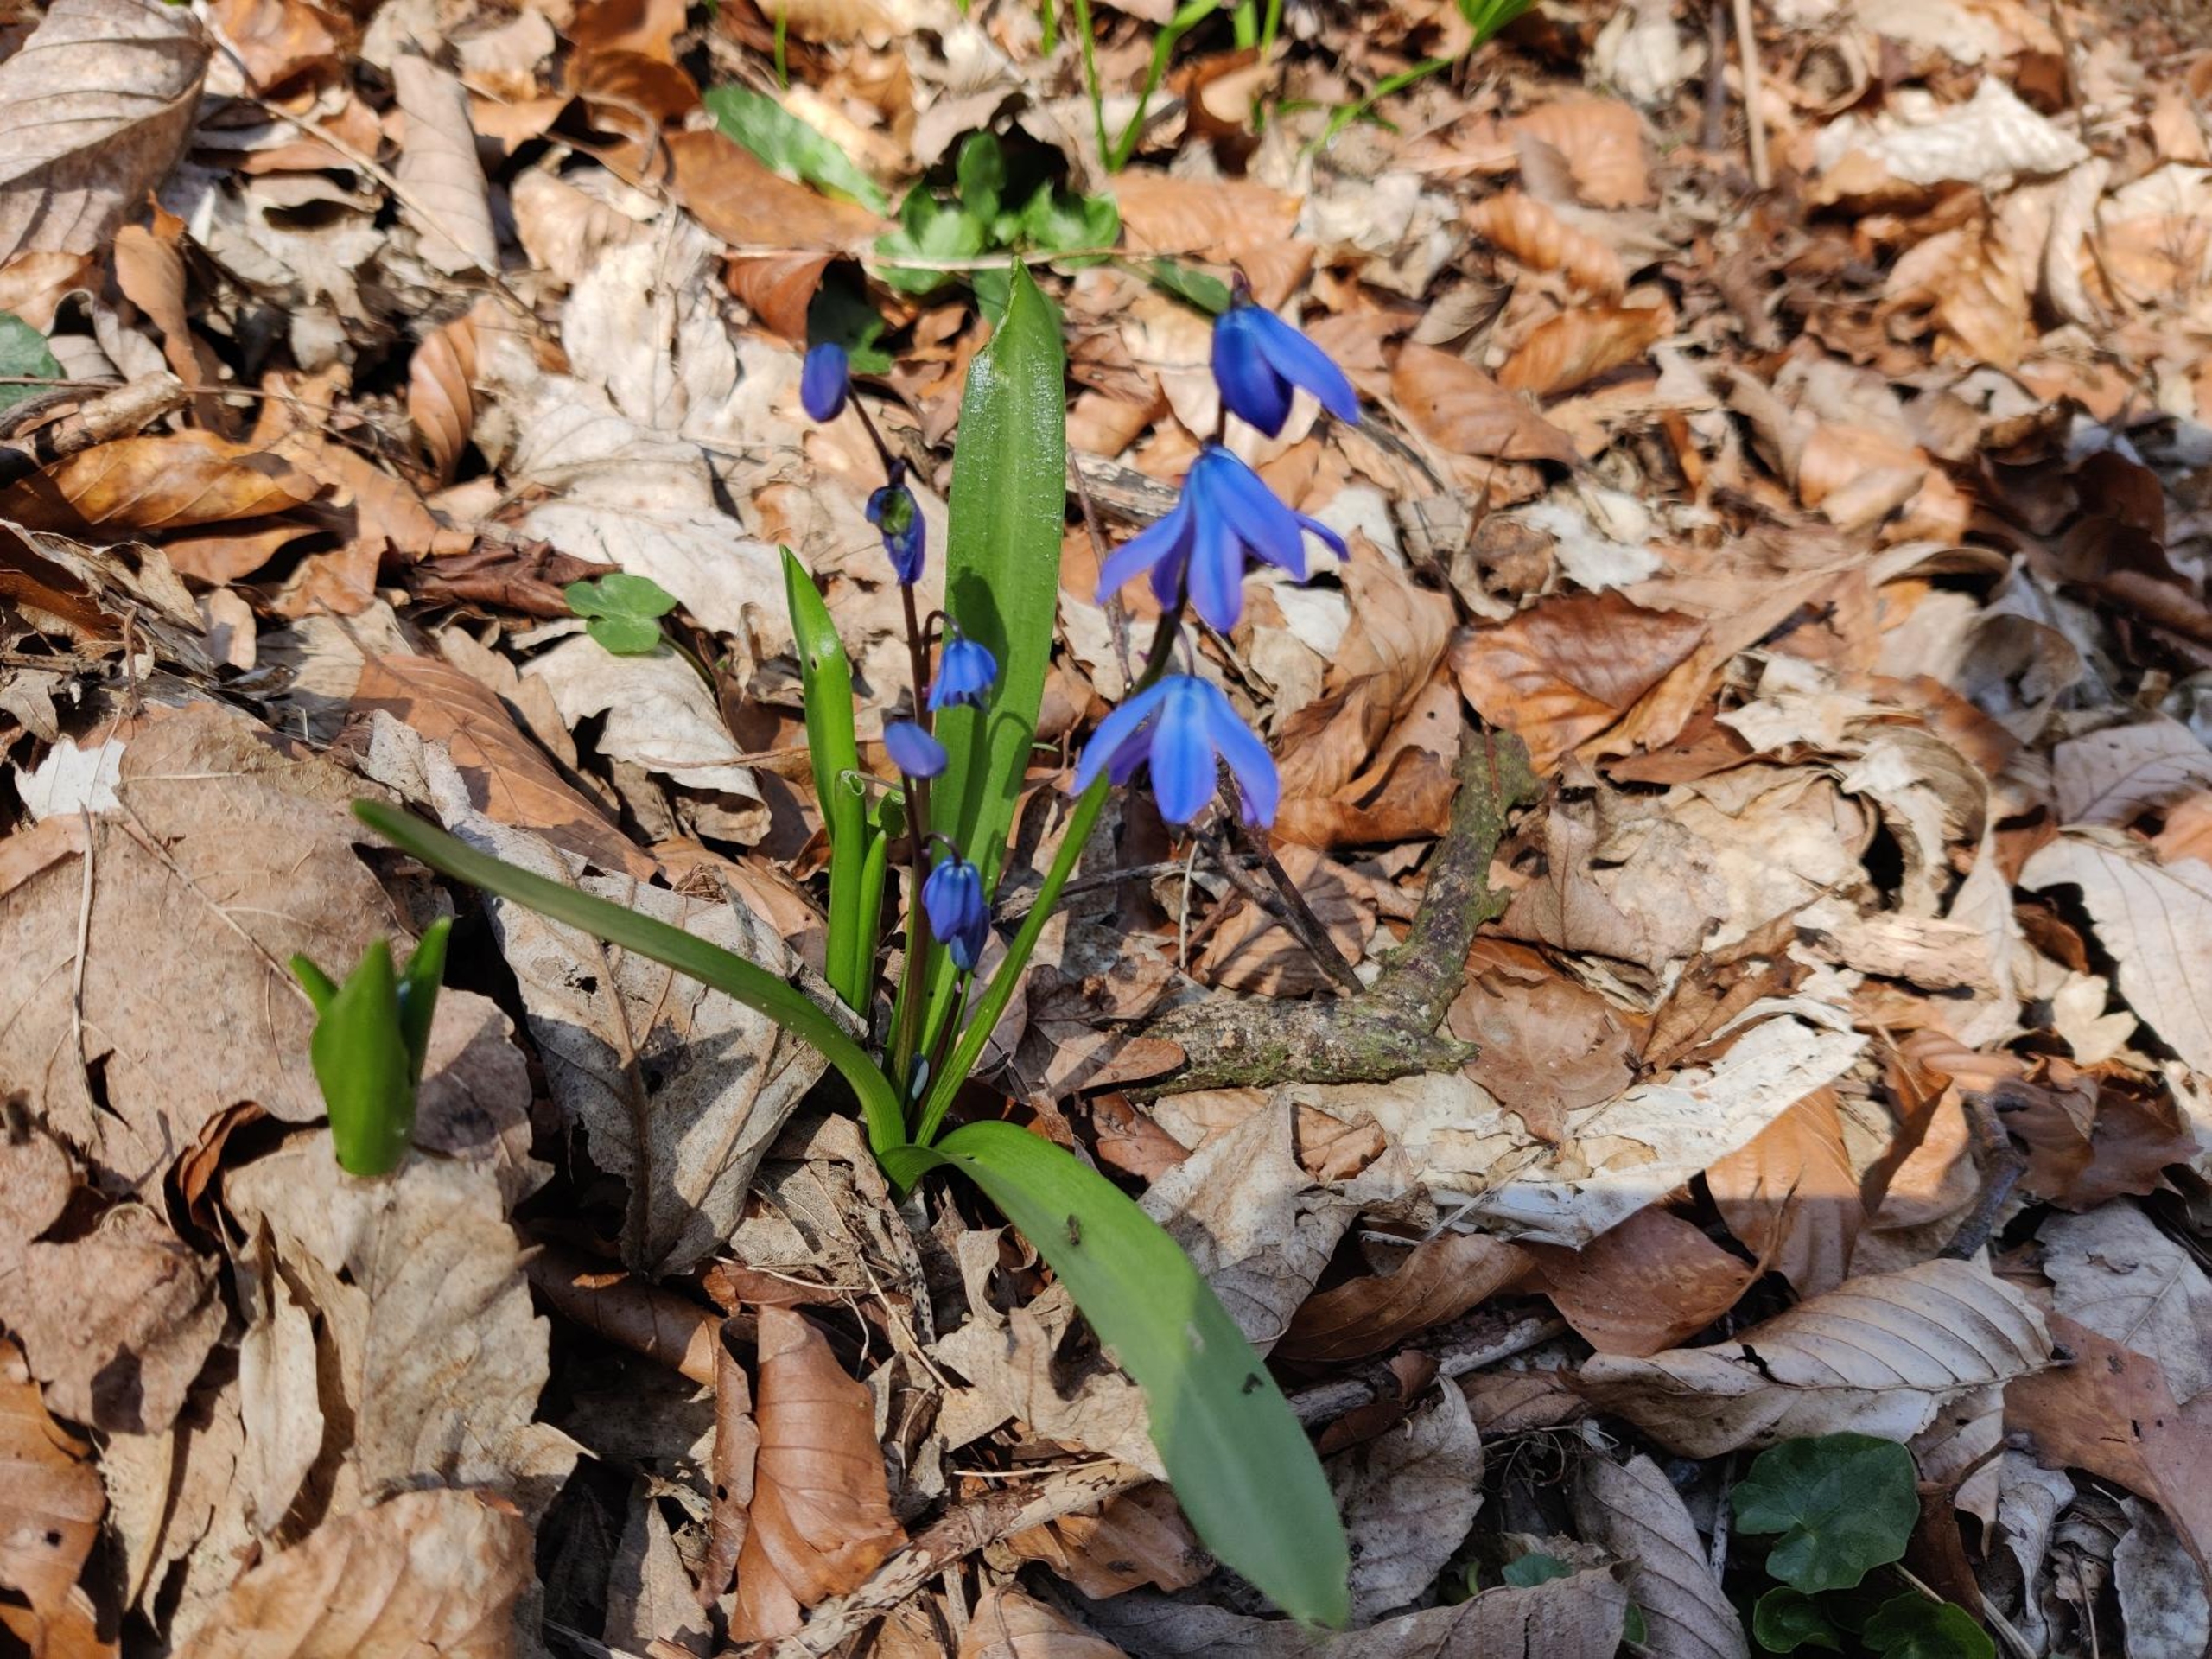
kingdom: Plantae
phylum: Tracheophyta
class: Liliopsida
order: Asparagales
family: Asparagaceae
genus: Scilla
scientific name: Scilla siberica
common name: Russisk skilla
